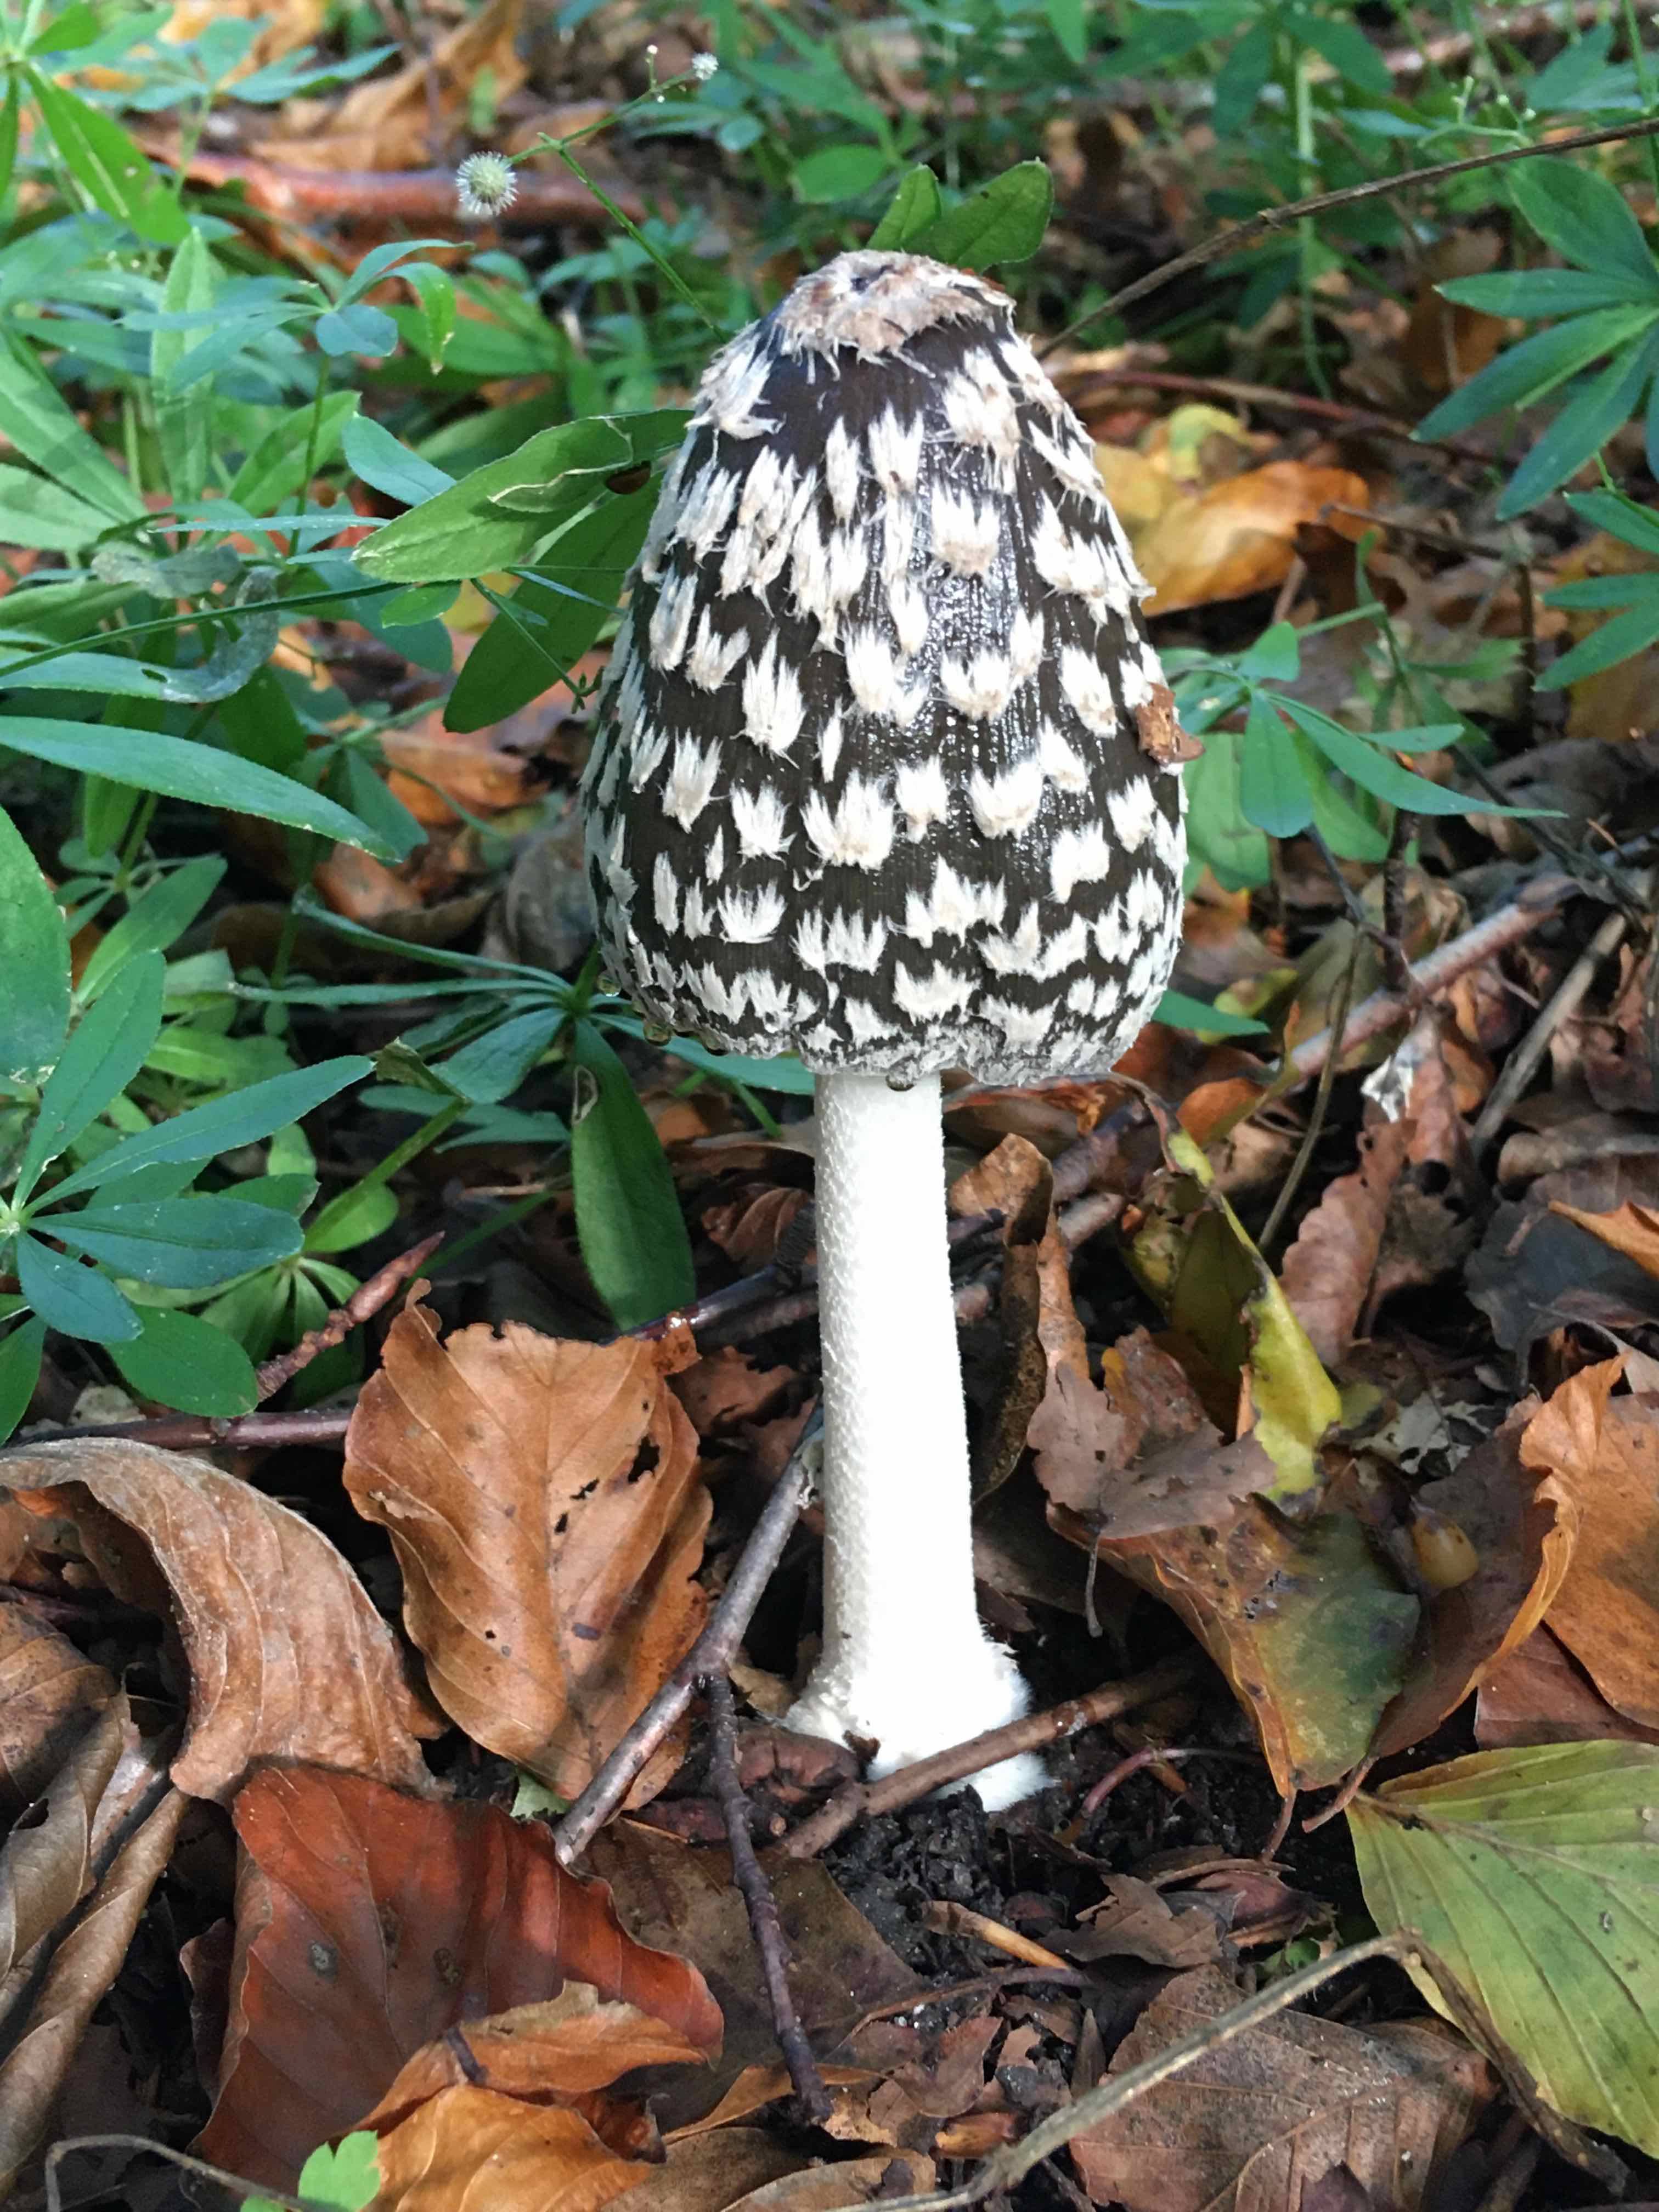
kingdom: Fungi
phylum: Basidiomycota
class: Agaricomycetes
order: Agaricales
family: Psathyrellaceae
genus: Coprinopsis
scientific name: Coprinopsis picacea
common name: skade-blækhat
